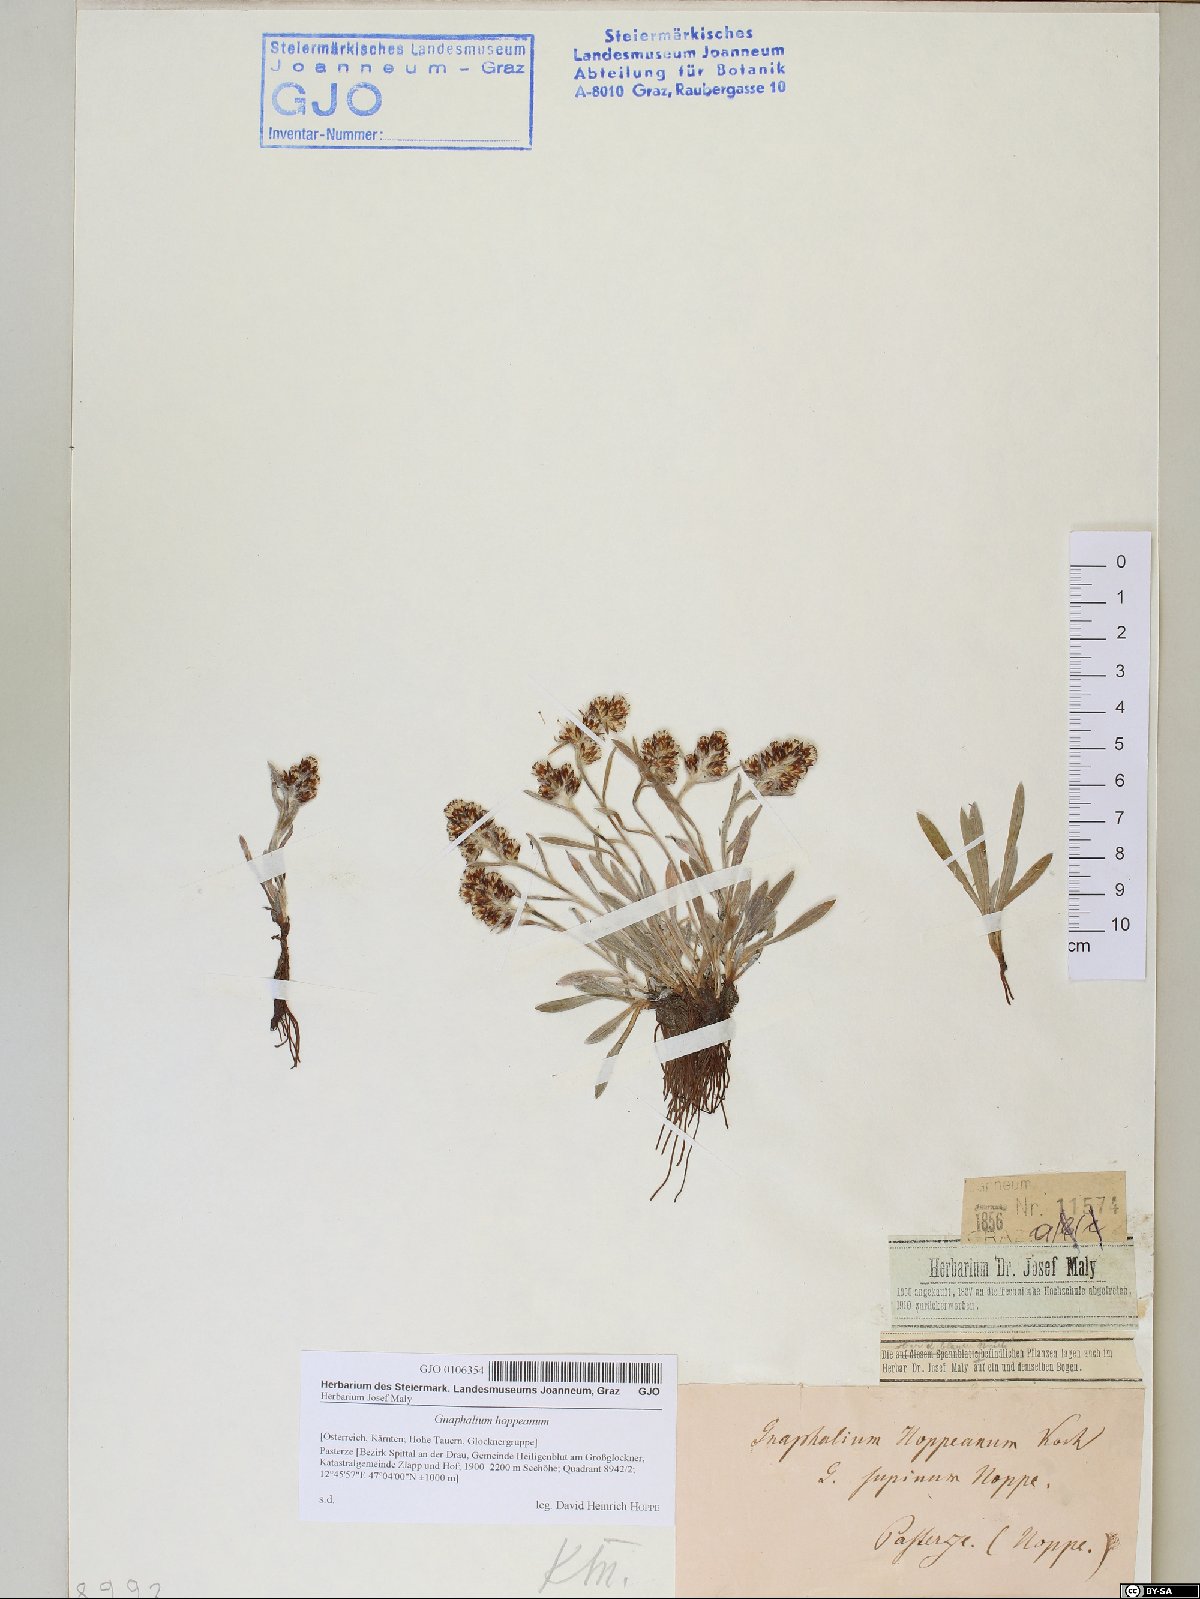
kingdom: Plantae
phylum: Tracheophyta
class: Magnoliopsida
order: Asterales
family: Asteraceae
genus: Omalotheca
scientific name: Omalotheca hoppeana
